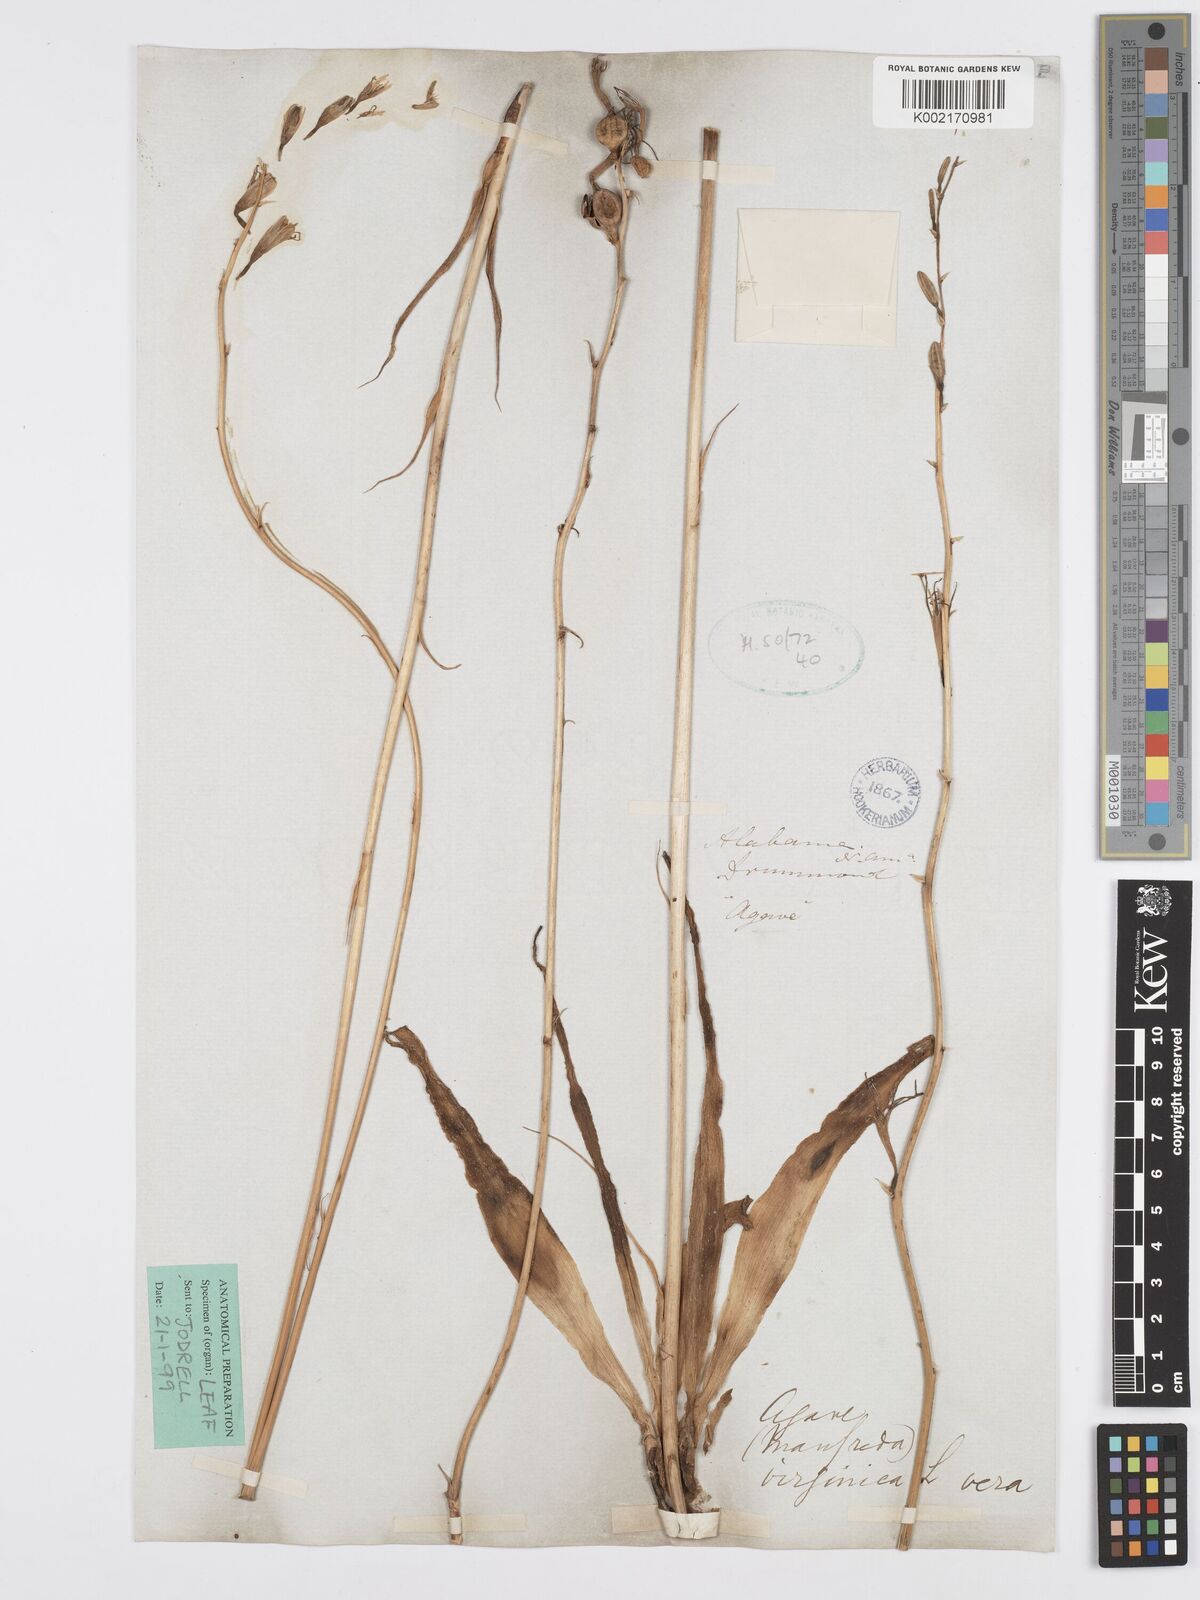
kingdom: Plantae
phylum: Tracheophyta
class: Liliopsida
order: Asparagales
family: Asparagaceae
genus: Agave
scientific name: Agave virginica
